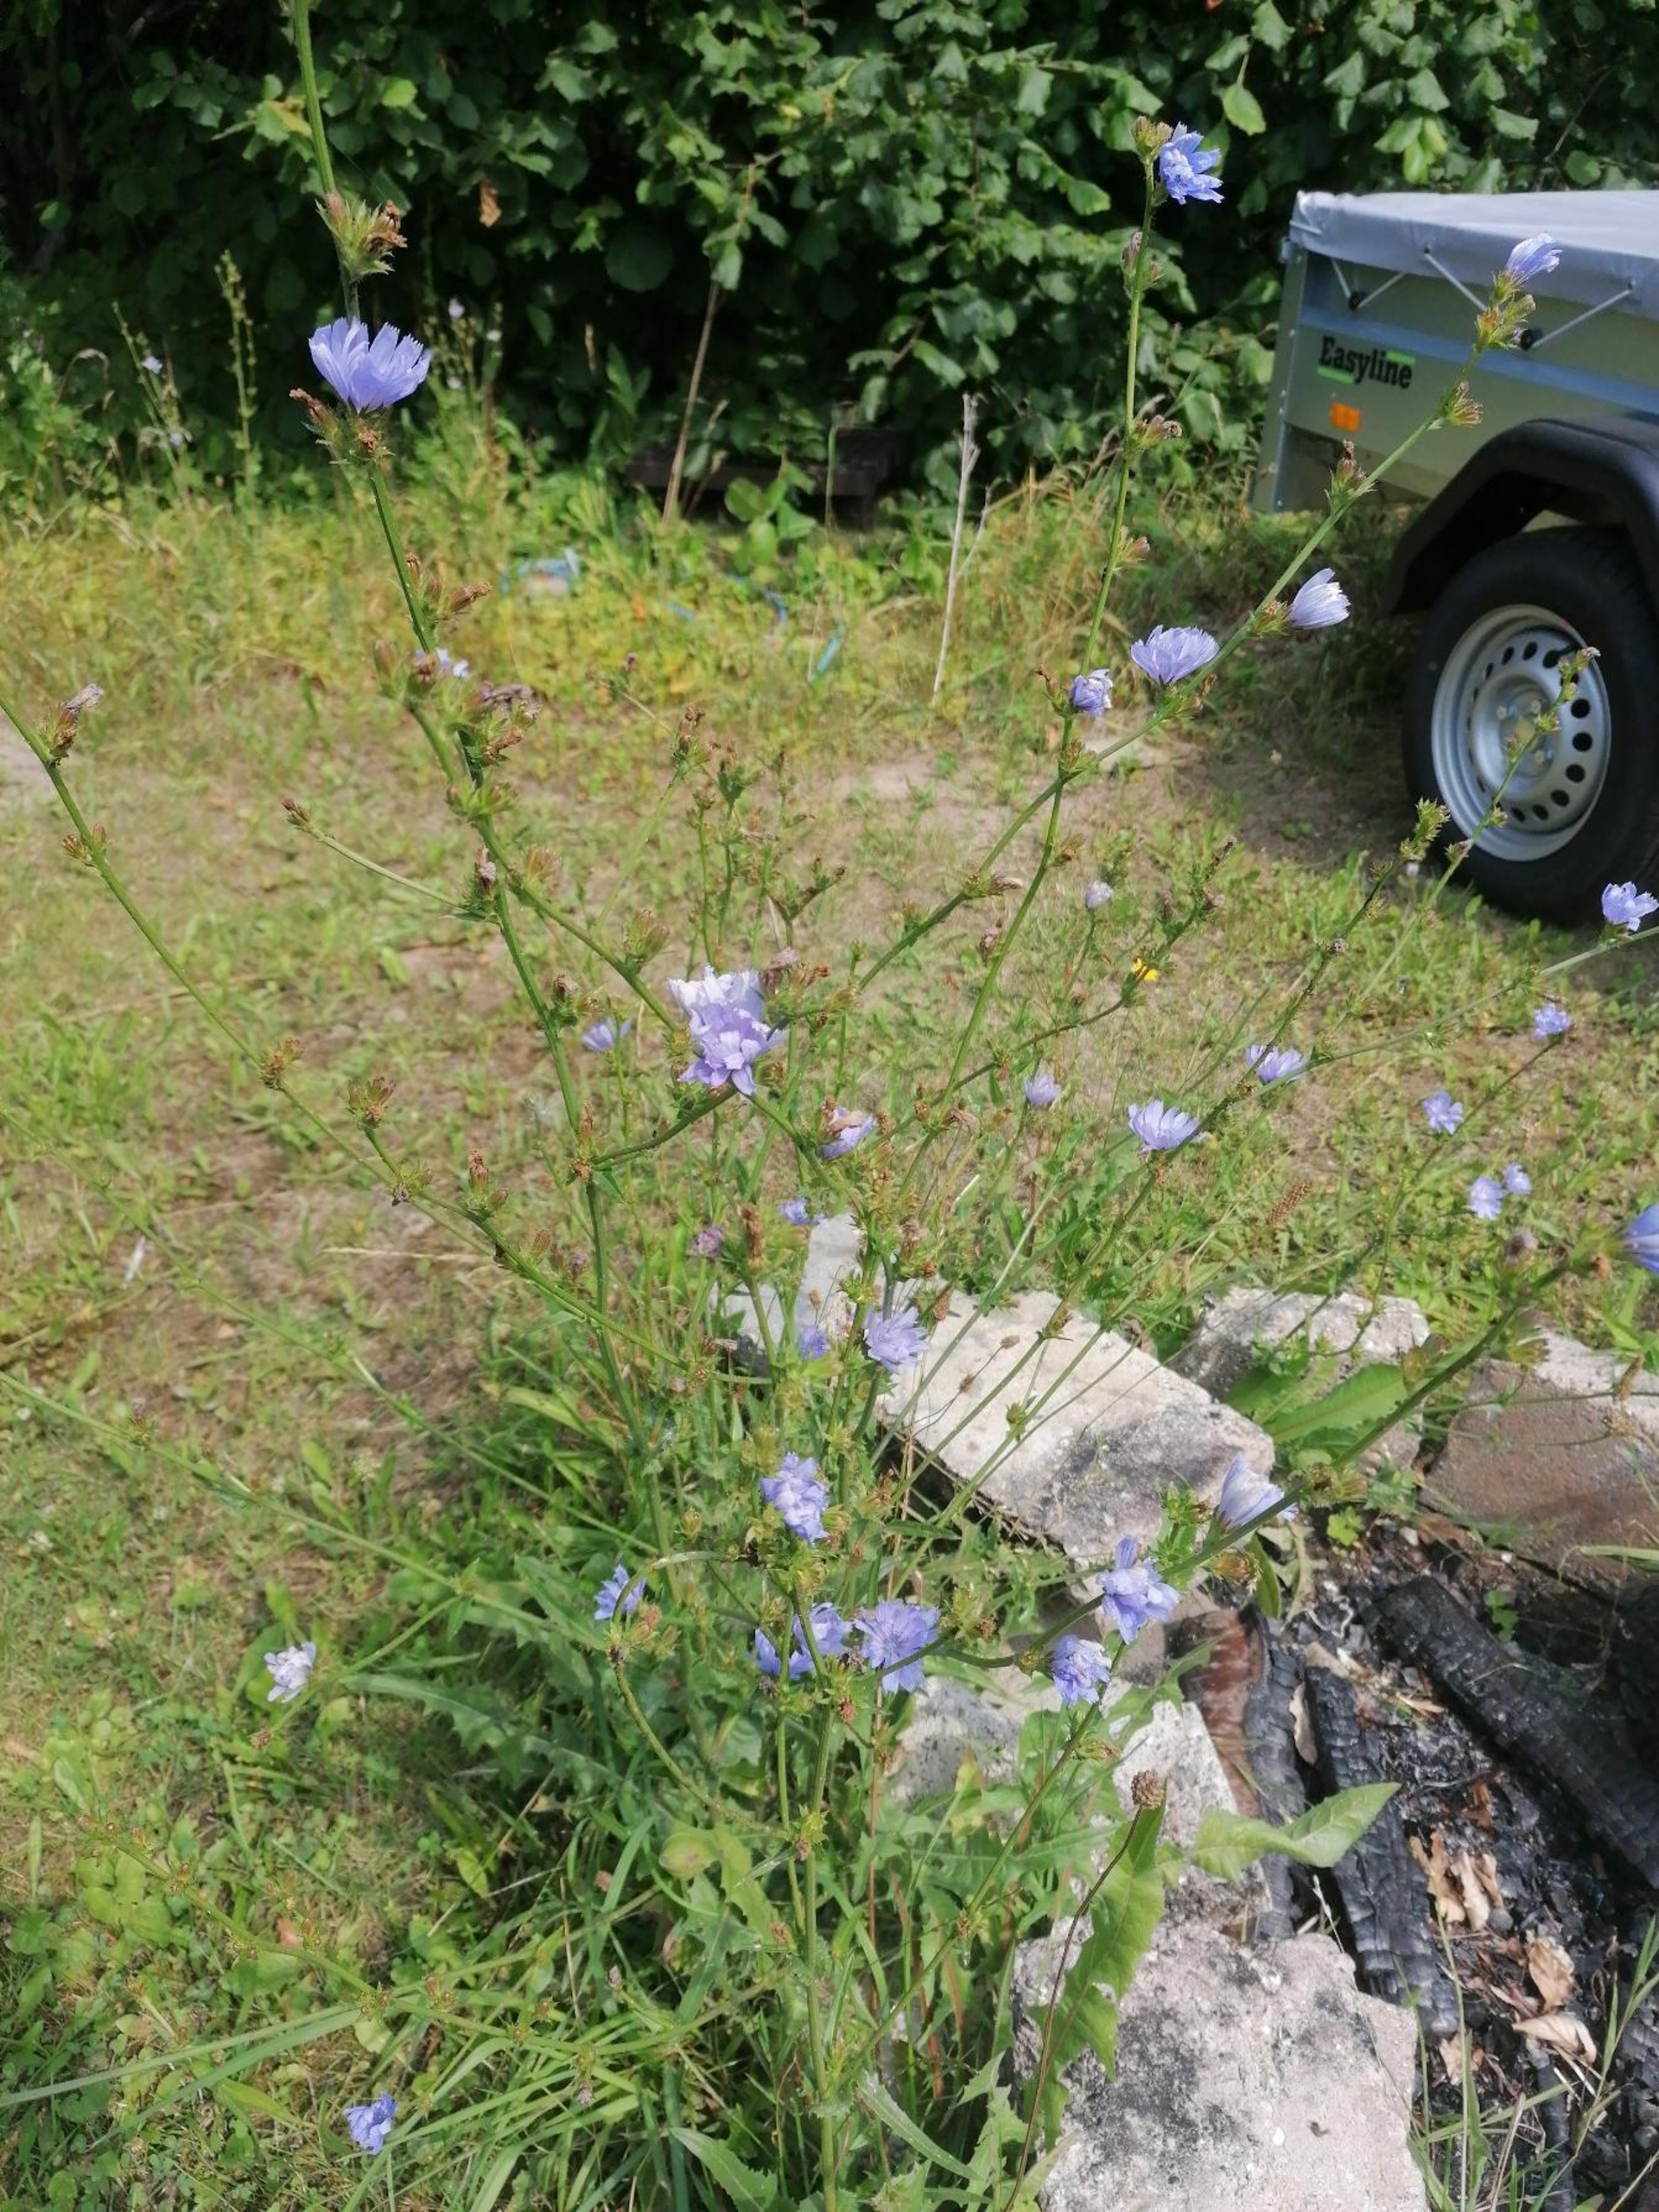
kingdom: Plantae
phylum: Tracheophyta
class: Magnoliopsida
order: Asterales
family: Asteraceae
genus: Cichorium
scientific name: Cichorium intybus
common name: Cikorie
